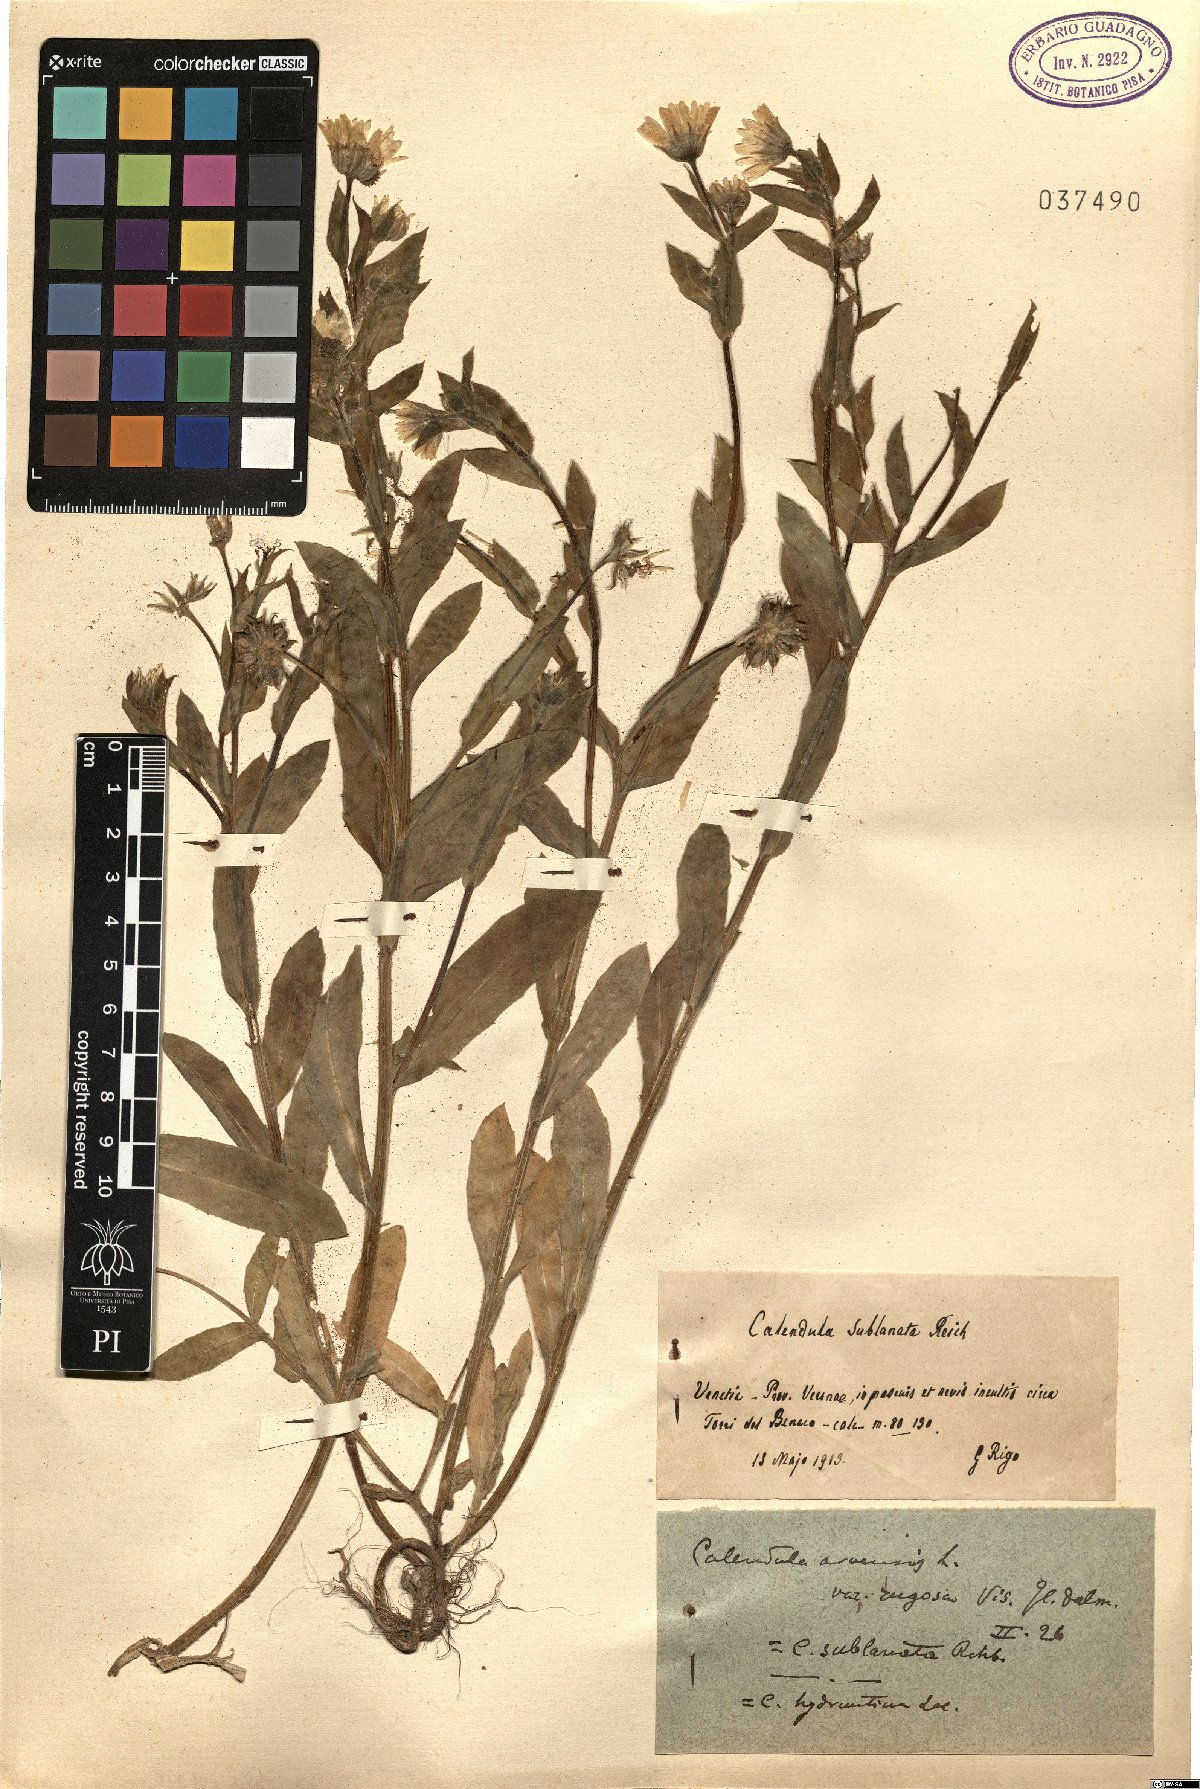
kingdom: Plantae
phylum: Tracheophyta
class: Magnoliopsida
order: Asterales
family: Asteraceae
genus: Calendula
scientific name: Calendula arvensis
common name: Field marigold
